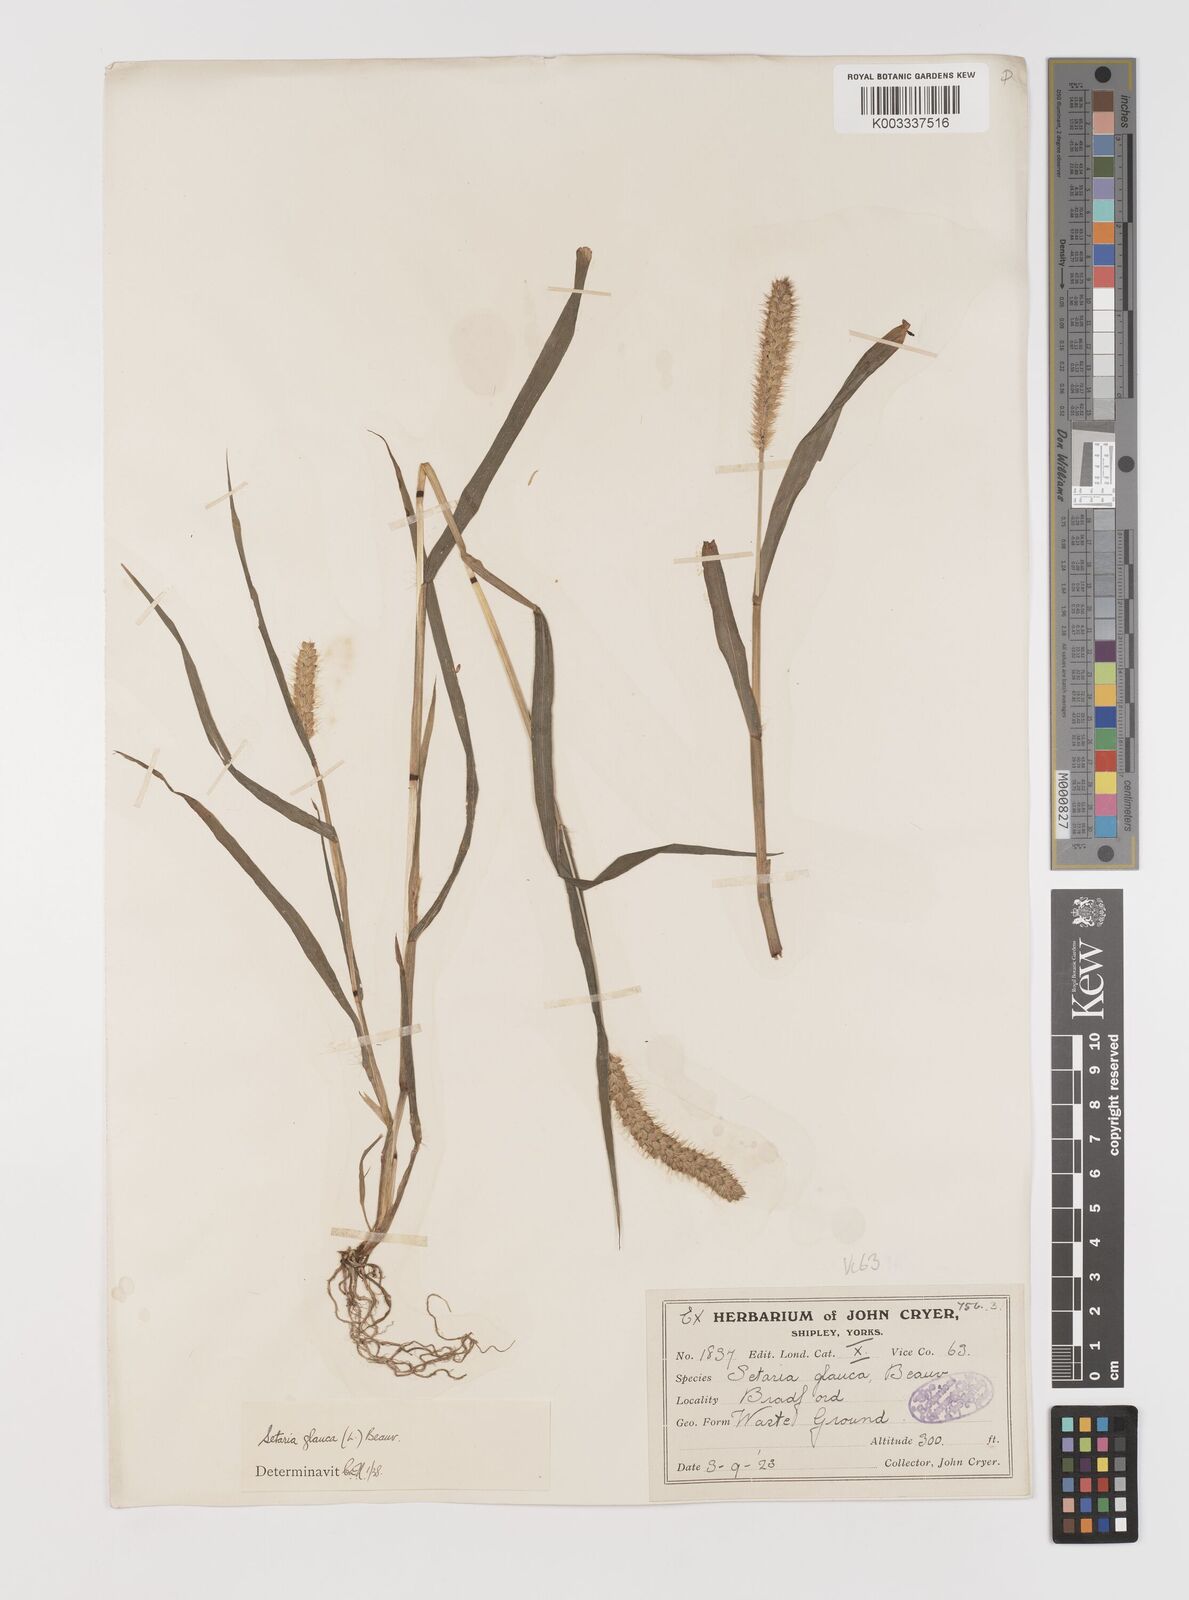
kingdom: Plantae
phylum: Tracheophyta
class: Liliopsida
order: Poales
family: Poaceae
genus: Setaria
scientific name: Setaria pumila
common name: Yellow bristle-grass
